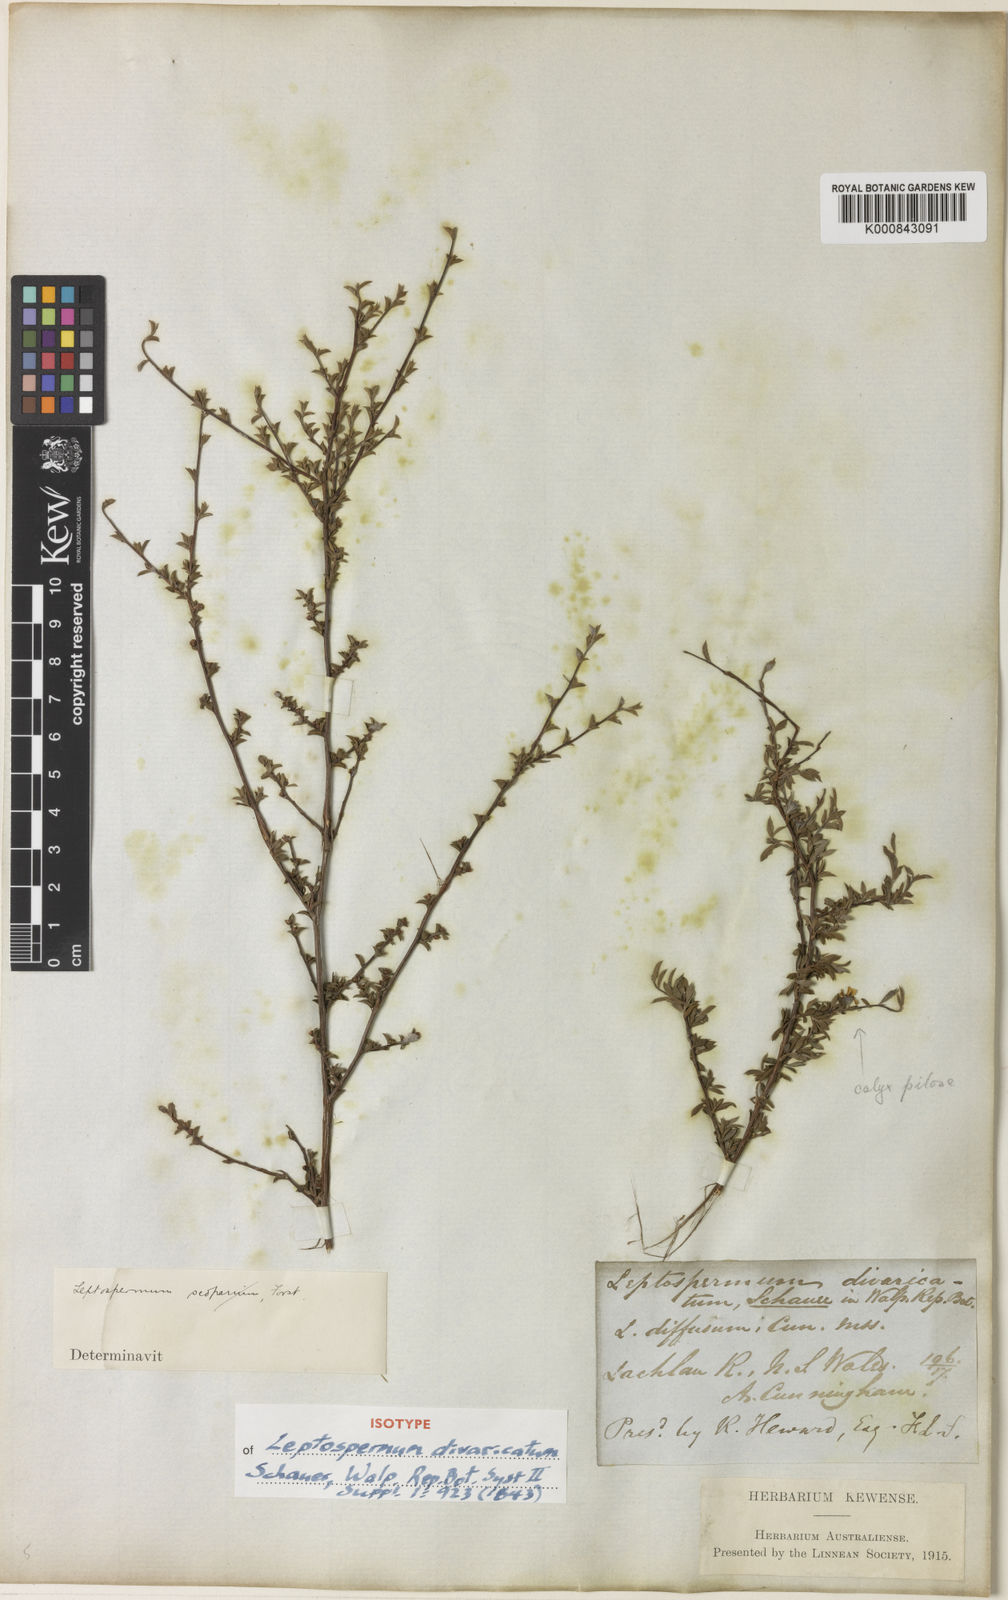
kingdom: Plantae
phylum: Tracheophyta
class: Magnoliopsida
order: Myrtales
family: Myrtaceae
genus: Leptospermum
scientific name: Leptospermum divaricatum
